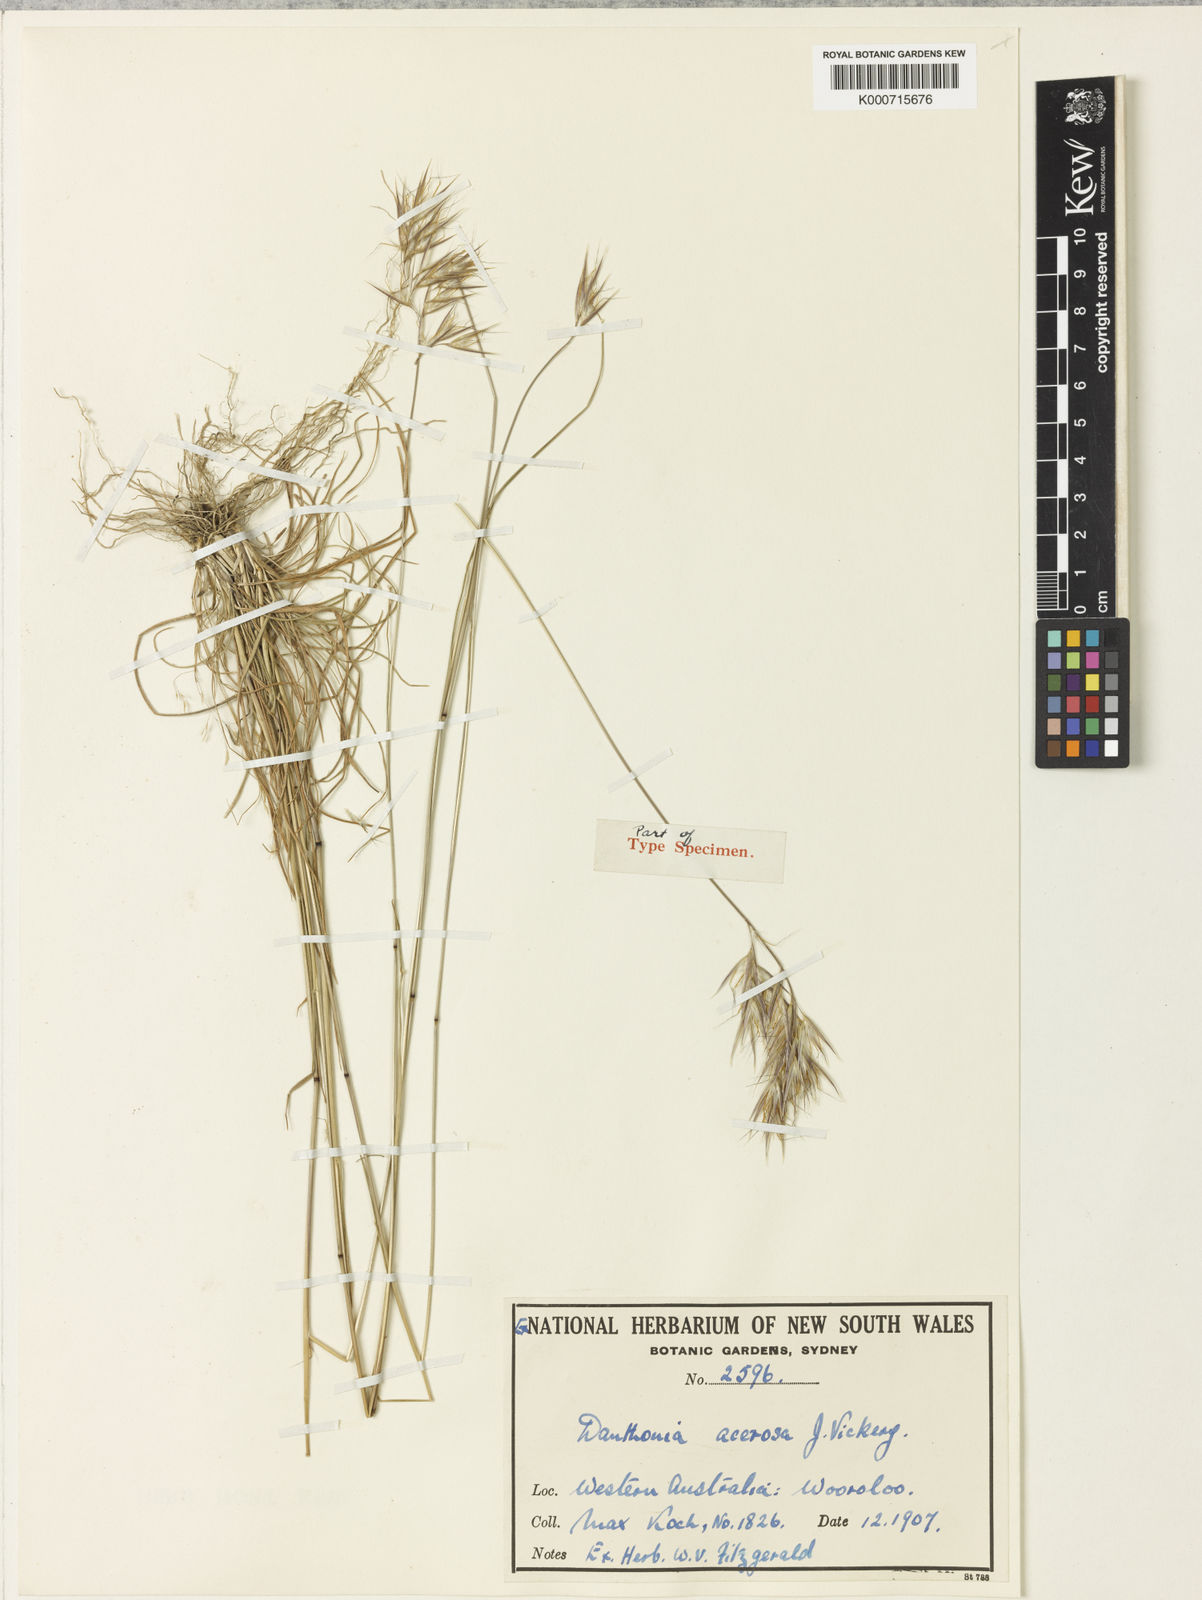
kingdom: Plantae
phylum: Tracheophyta
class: Liliopsida
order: Poales
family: Poaceae
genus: Rytidosperma
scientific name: Rytidosperma acerosum
